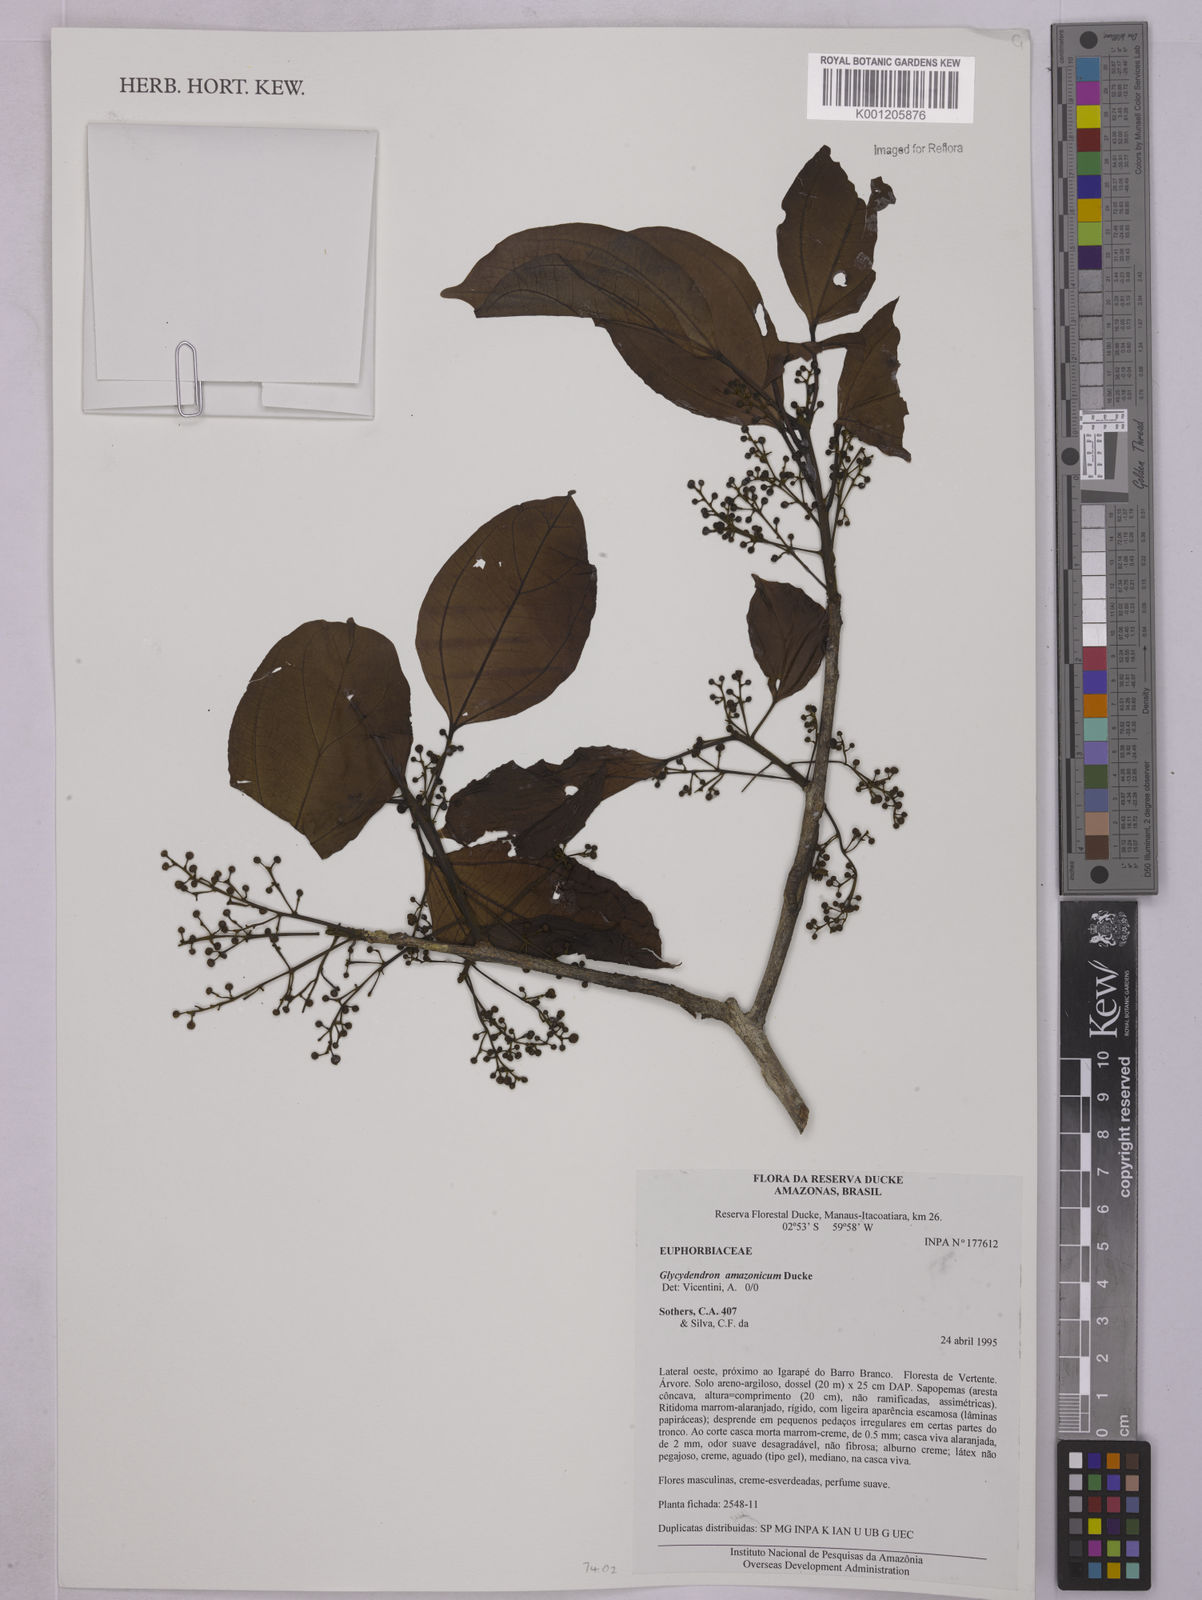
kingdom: Plantae
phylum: Tracheophyta
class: Magnoliopsida
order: Malpighiales
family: Euphorbiaceae
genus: Glycydendron
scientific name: Glycydendron amazonicum
